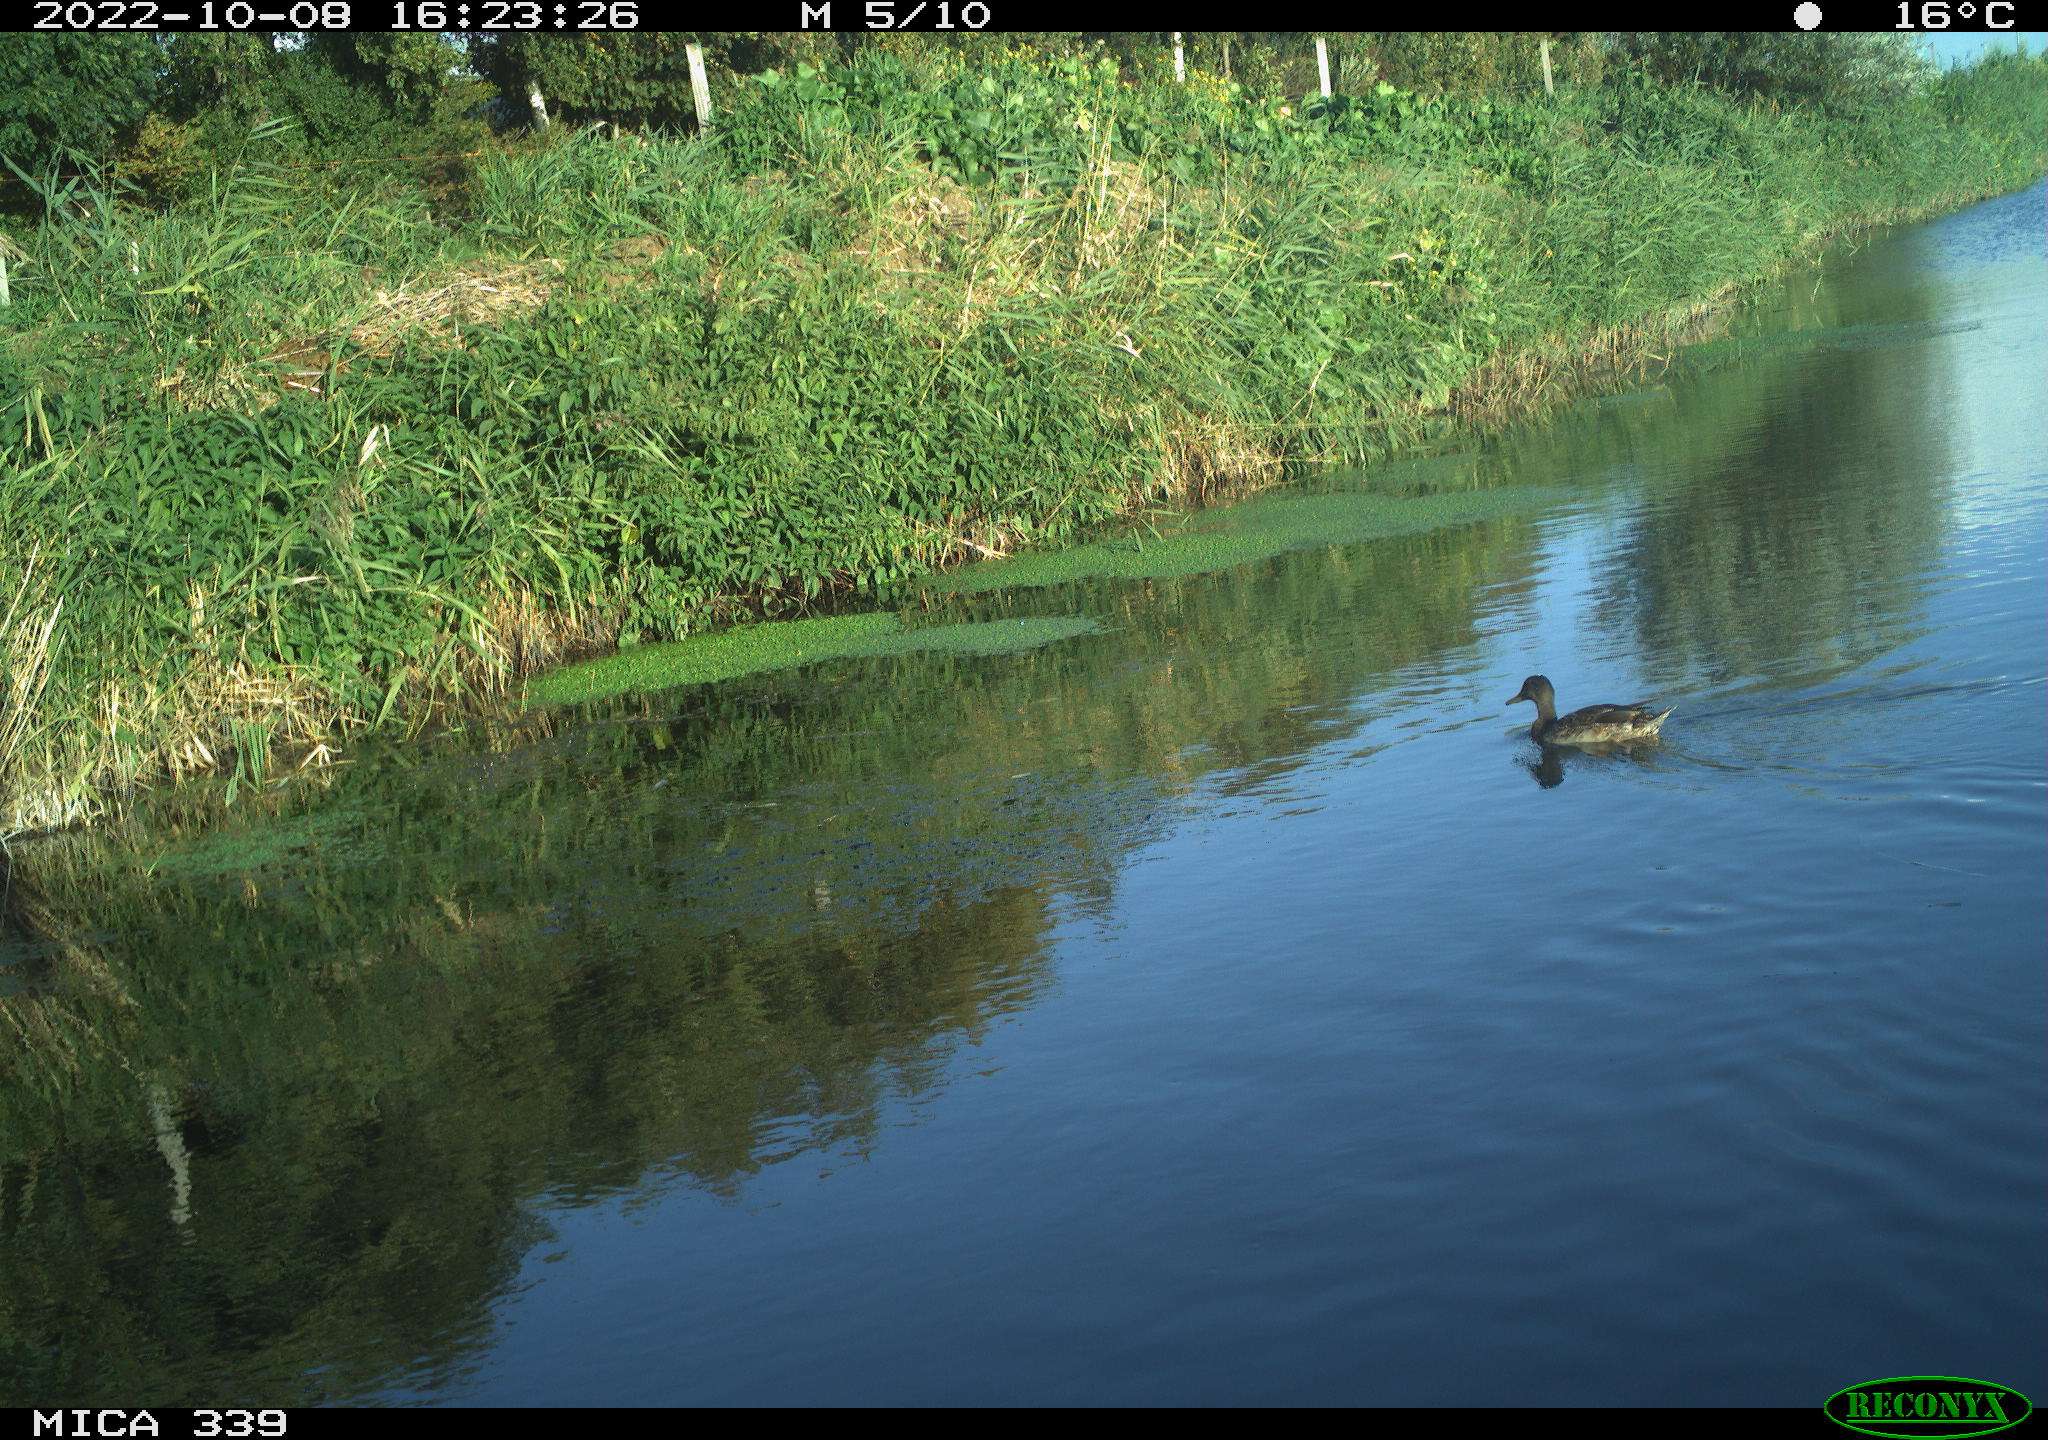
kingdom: Animalia
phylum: Chordata
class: Aves
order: Anseriformes
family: Anatidae
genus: Anas
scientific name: Anas platyrhynchos
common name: Mallard
